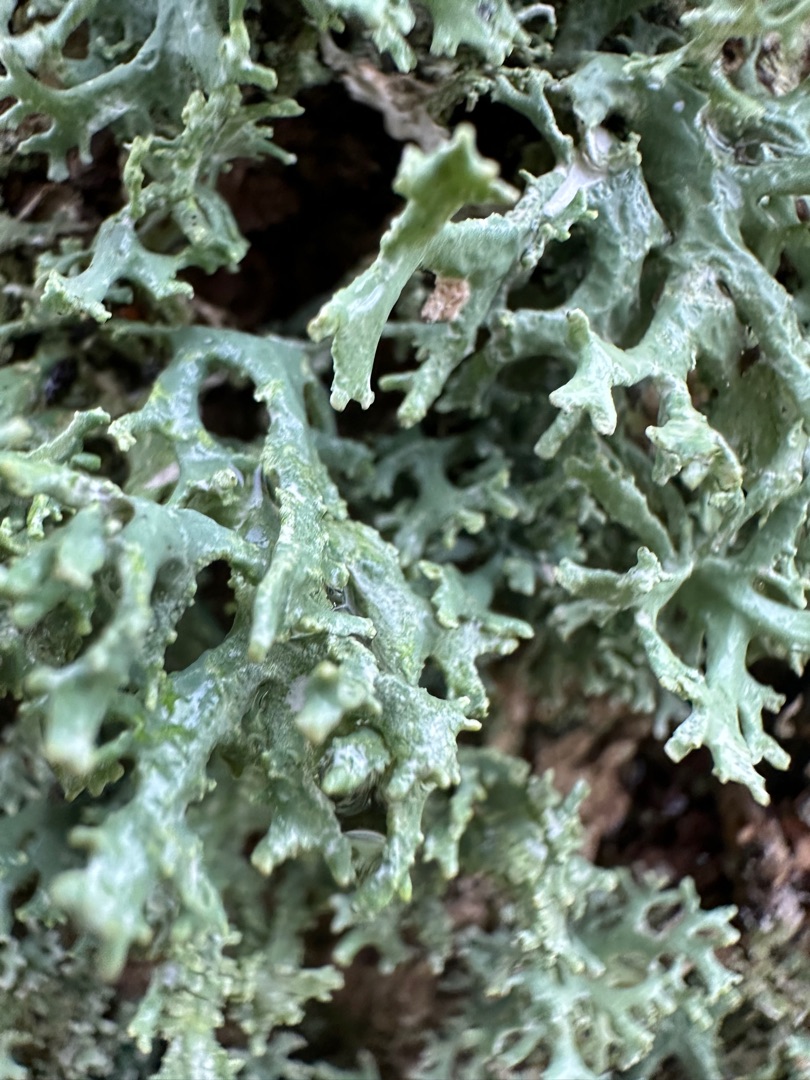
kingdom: Fungi
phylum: Ascomycota
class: Lecanoromycetes
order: Lecanorales
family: Parmeliaceae
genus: Evernia
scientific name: Evernia prunastri
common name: Almindelig slåenlav
